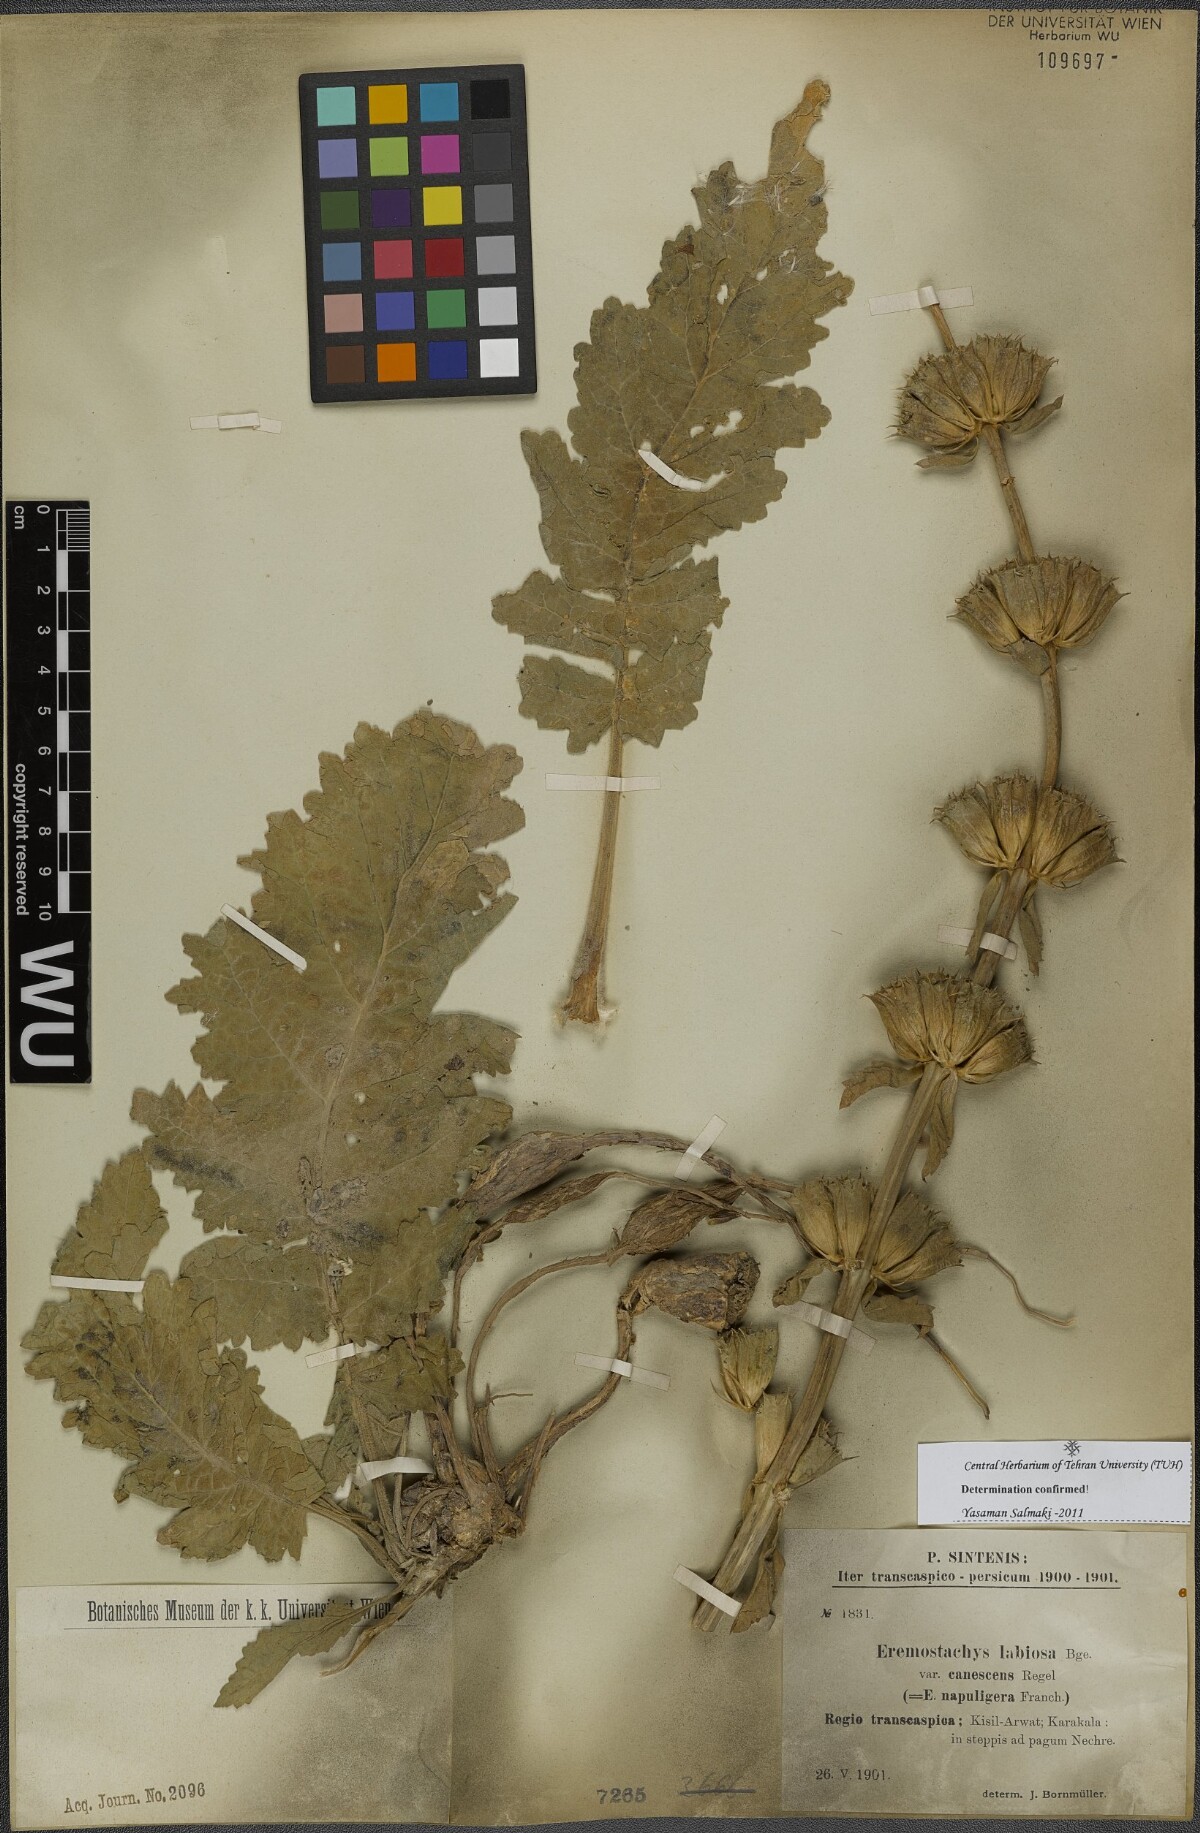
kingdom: Plantae
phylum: Tracheophyta
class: Magnoliopsida
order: Lamiales
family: Lamiaceae
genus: Phlomoides
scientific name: Phlomoides labiosa
